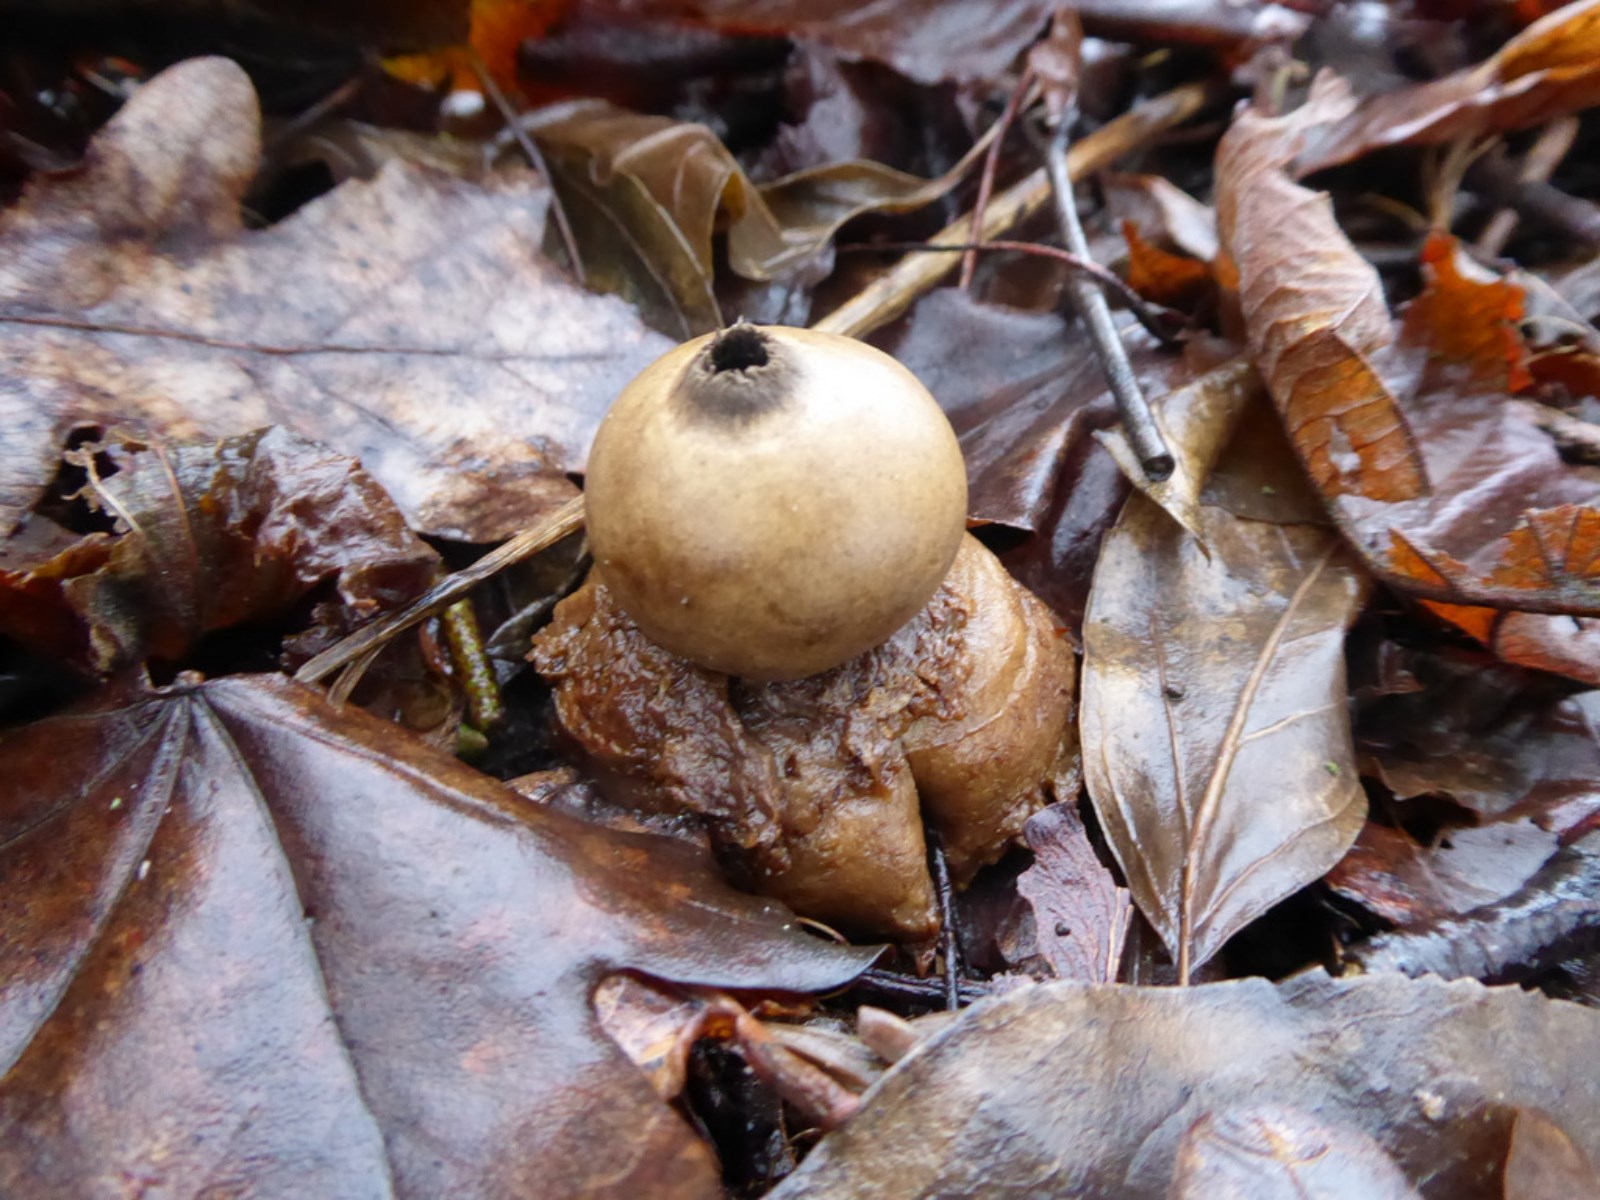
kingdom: Fungi
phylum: Basidiomycota
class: Agaricomycetes
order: Geastrales
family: Geastraceae
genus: Geastrum
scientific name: Geastrum michelianum
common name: kødet stjernebold
